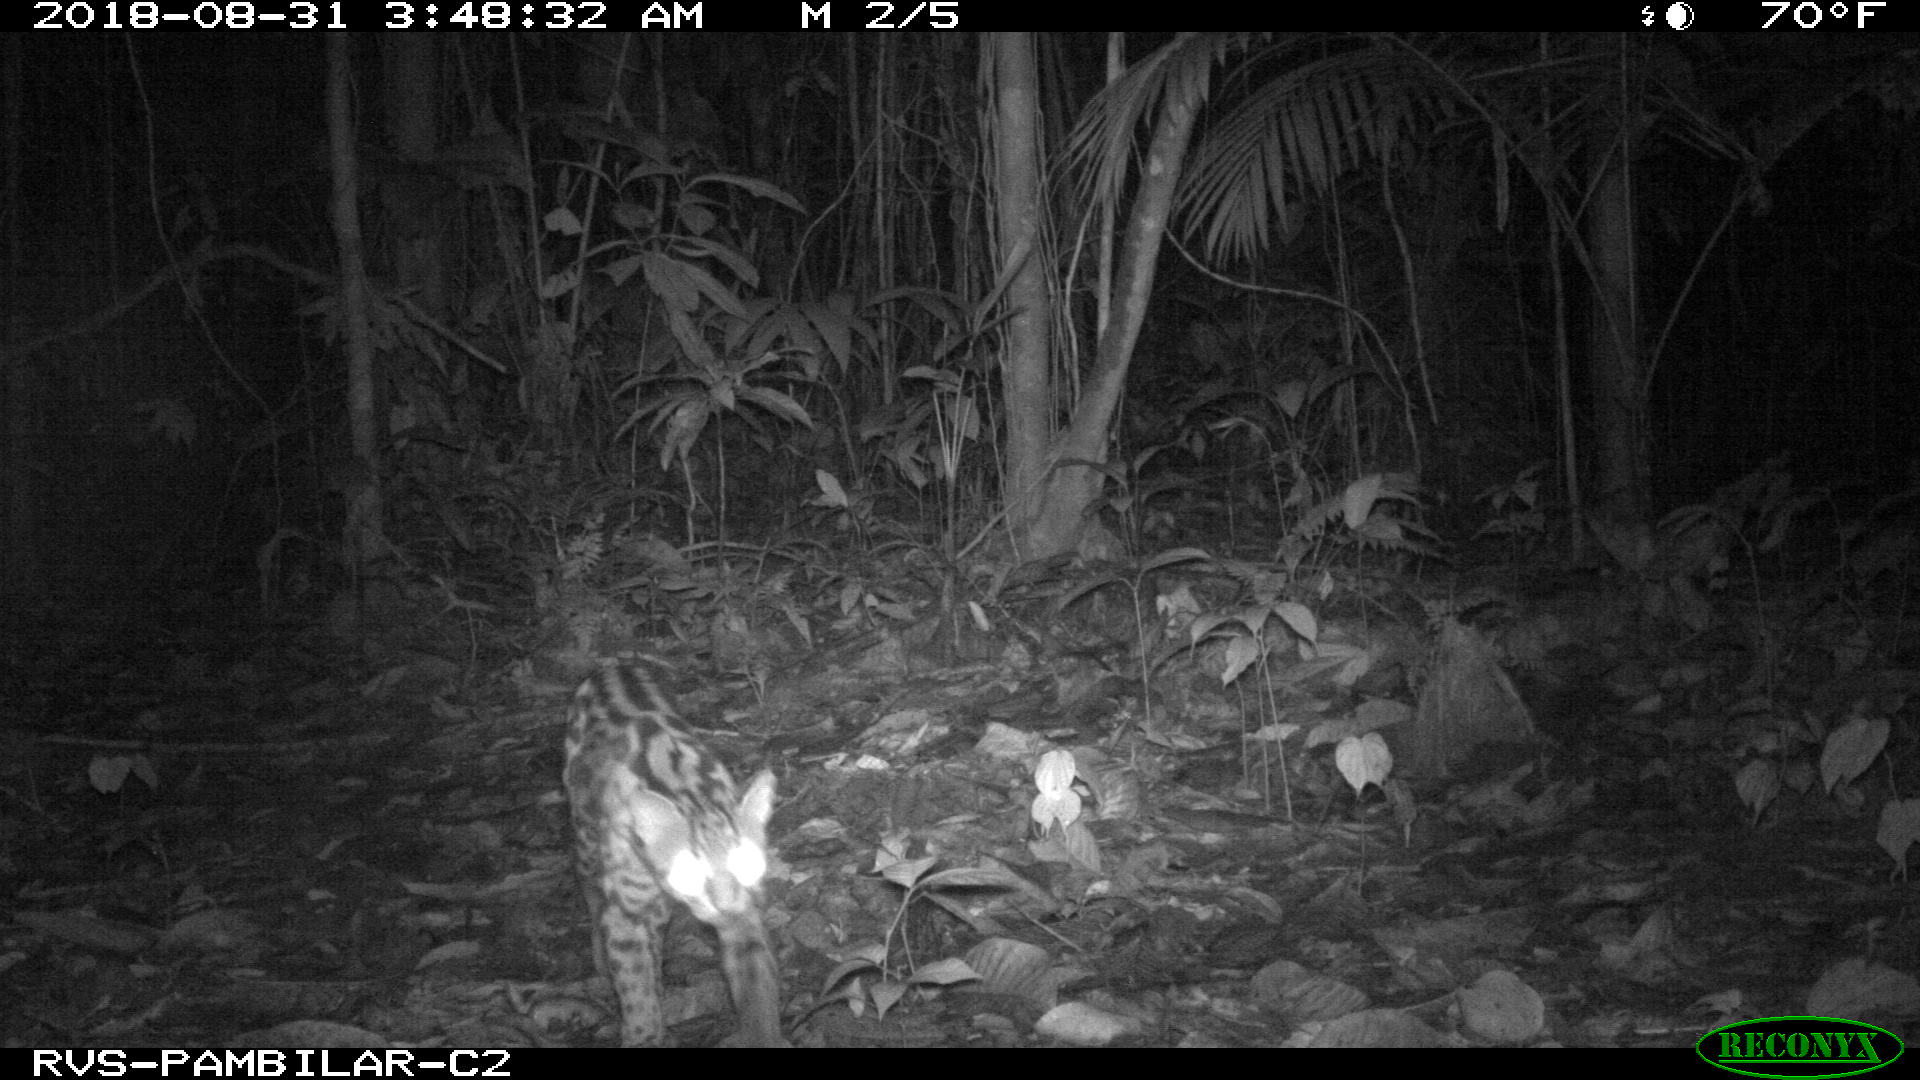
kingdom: Animalia
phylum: Chordata
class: Mammalia
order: Carnivora
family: Felidae
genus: Leopardus
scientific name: Leopardus pardalis
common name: Ocelot
